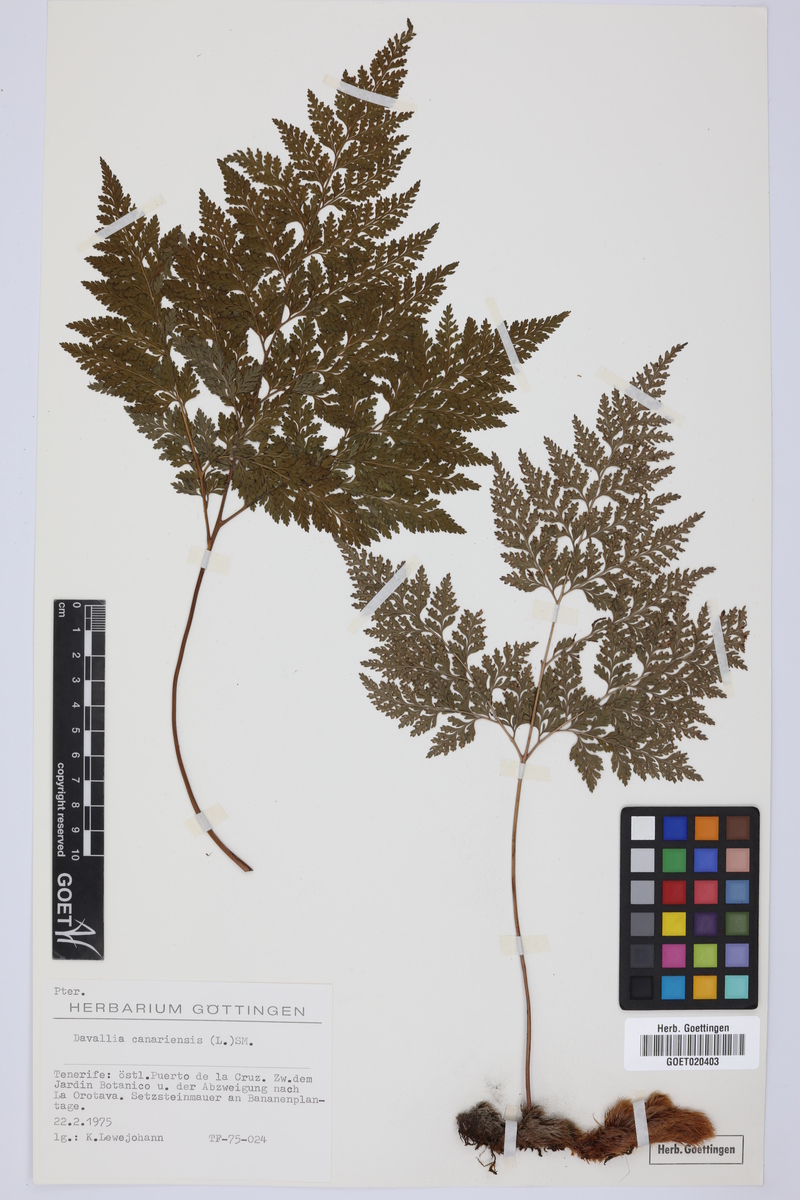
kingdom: Plantae
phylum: Tracheophyta
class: Polypodiopsida
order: Polypodiales
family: Davalliaceae
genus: Davallia
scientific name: Davallia canariensis
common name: Hare's-foot fern
